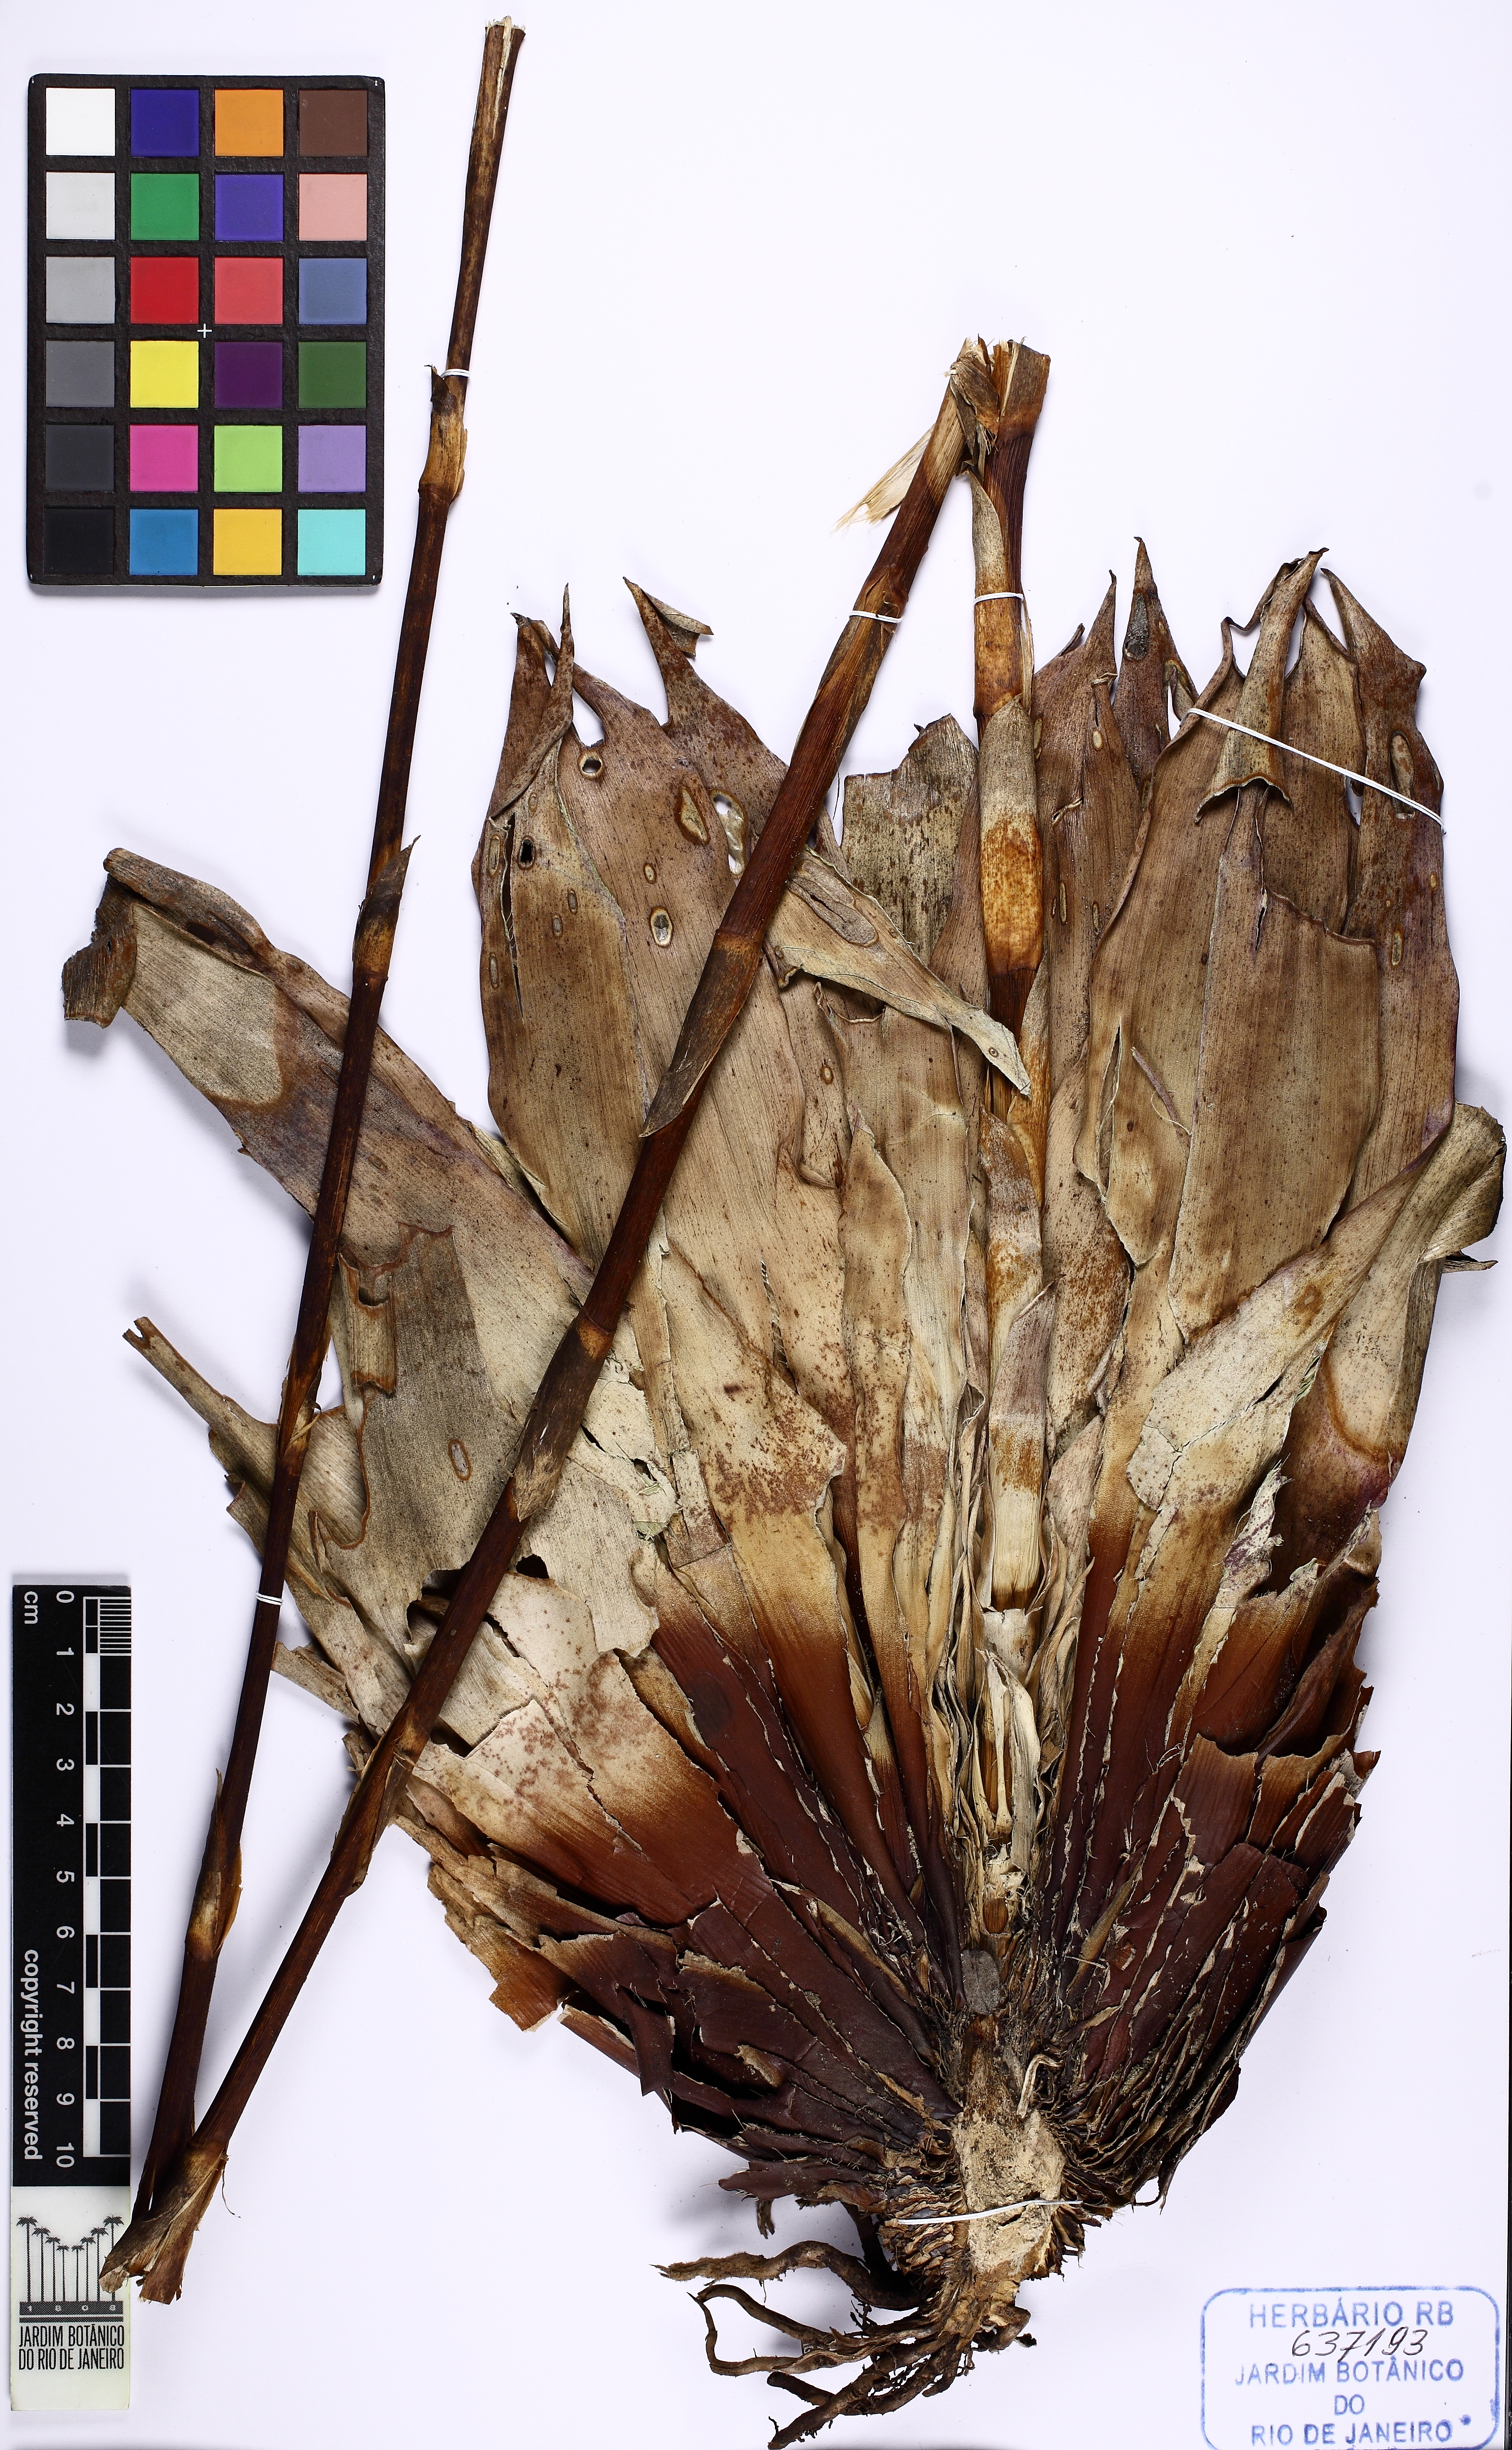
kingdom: Plantae
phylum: Tracheophyta
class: Liliopsida
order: Poales
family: Bromeliaceae
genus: Vriesea
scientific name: Vriesea hoehneana
